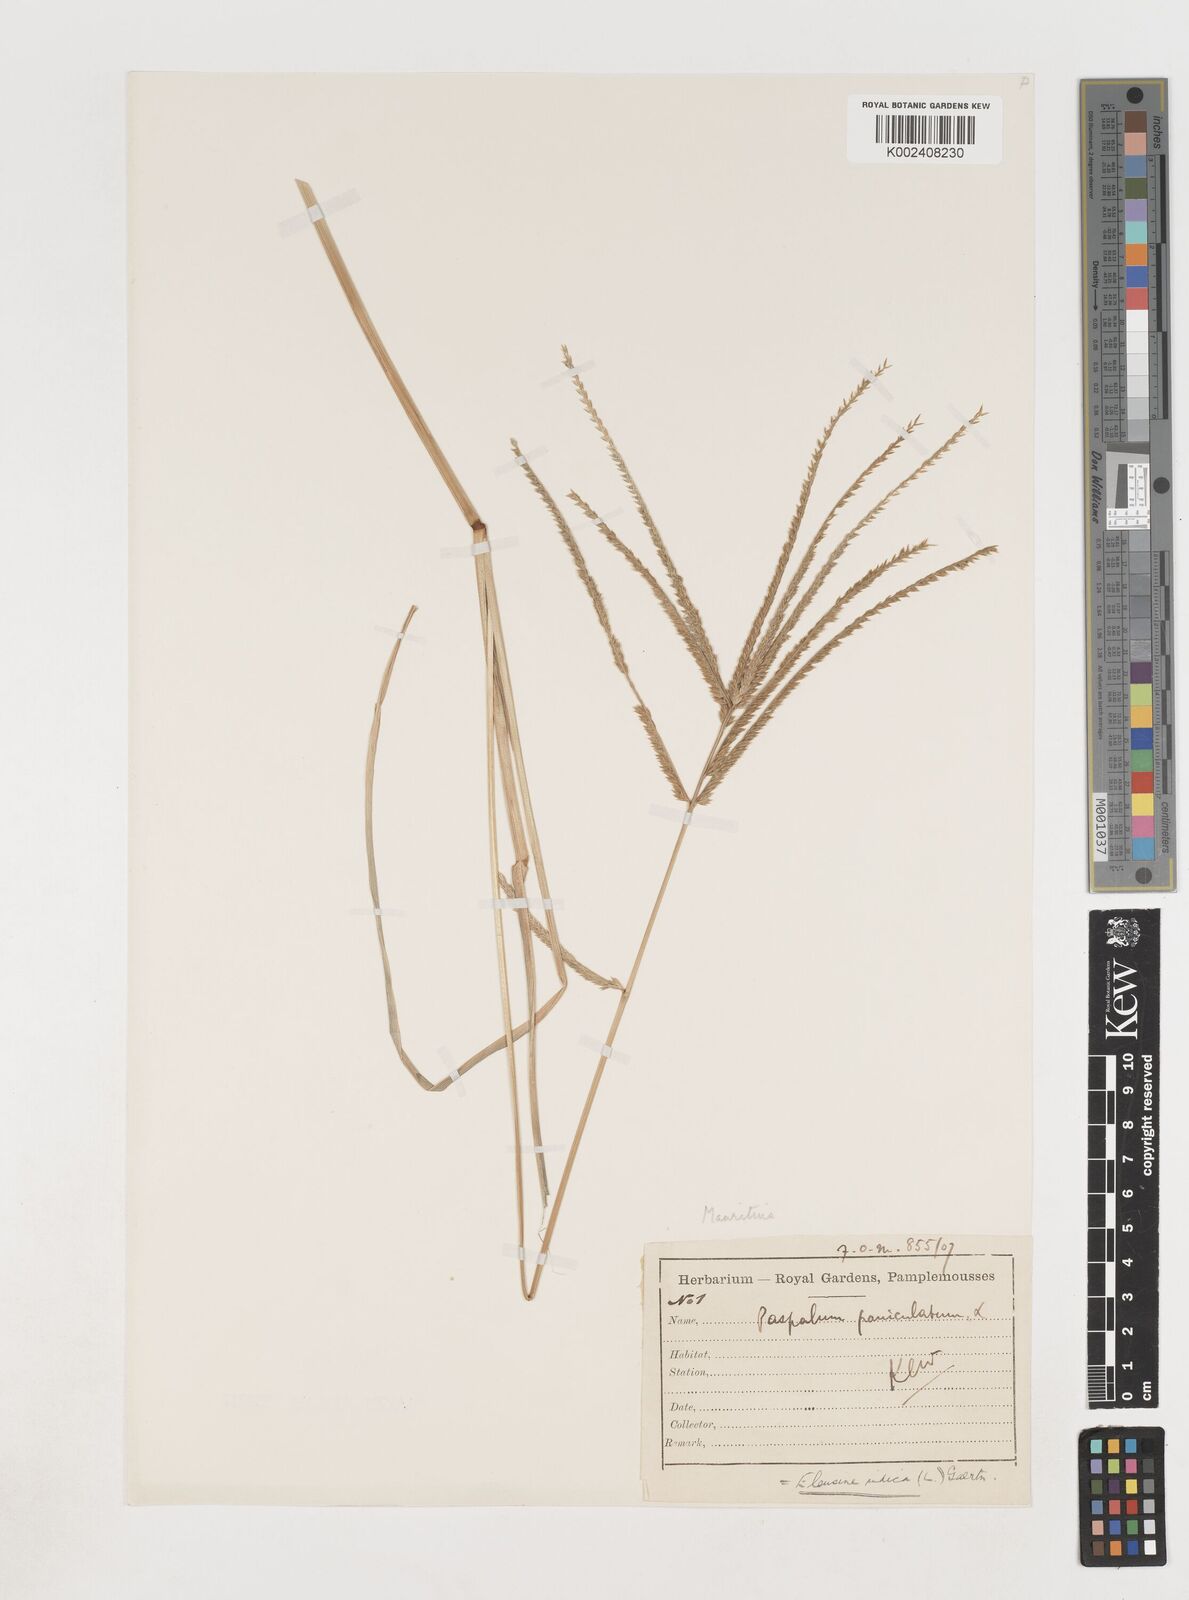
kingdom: Plantae
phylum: Tracheophyta
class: Liliopsida
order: Poales
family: Poaceae
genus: Eleusine
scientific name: Eleusine africana
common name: Wild african finger millet
